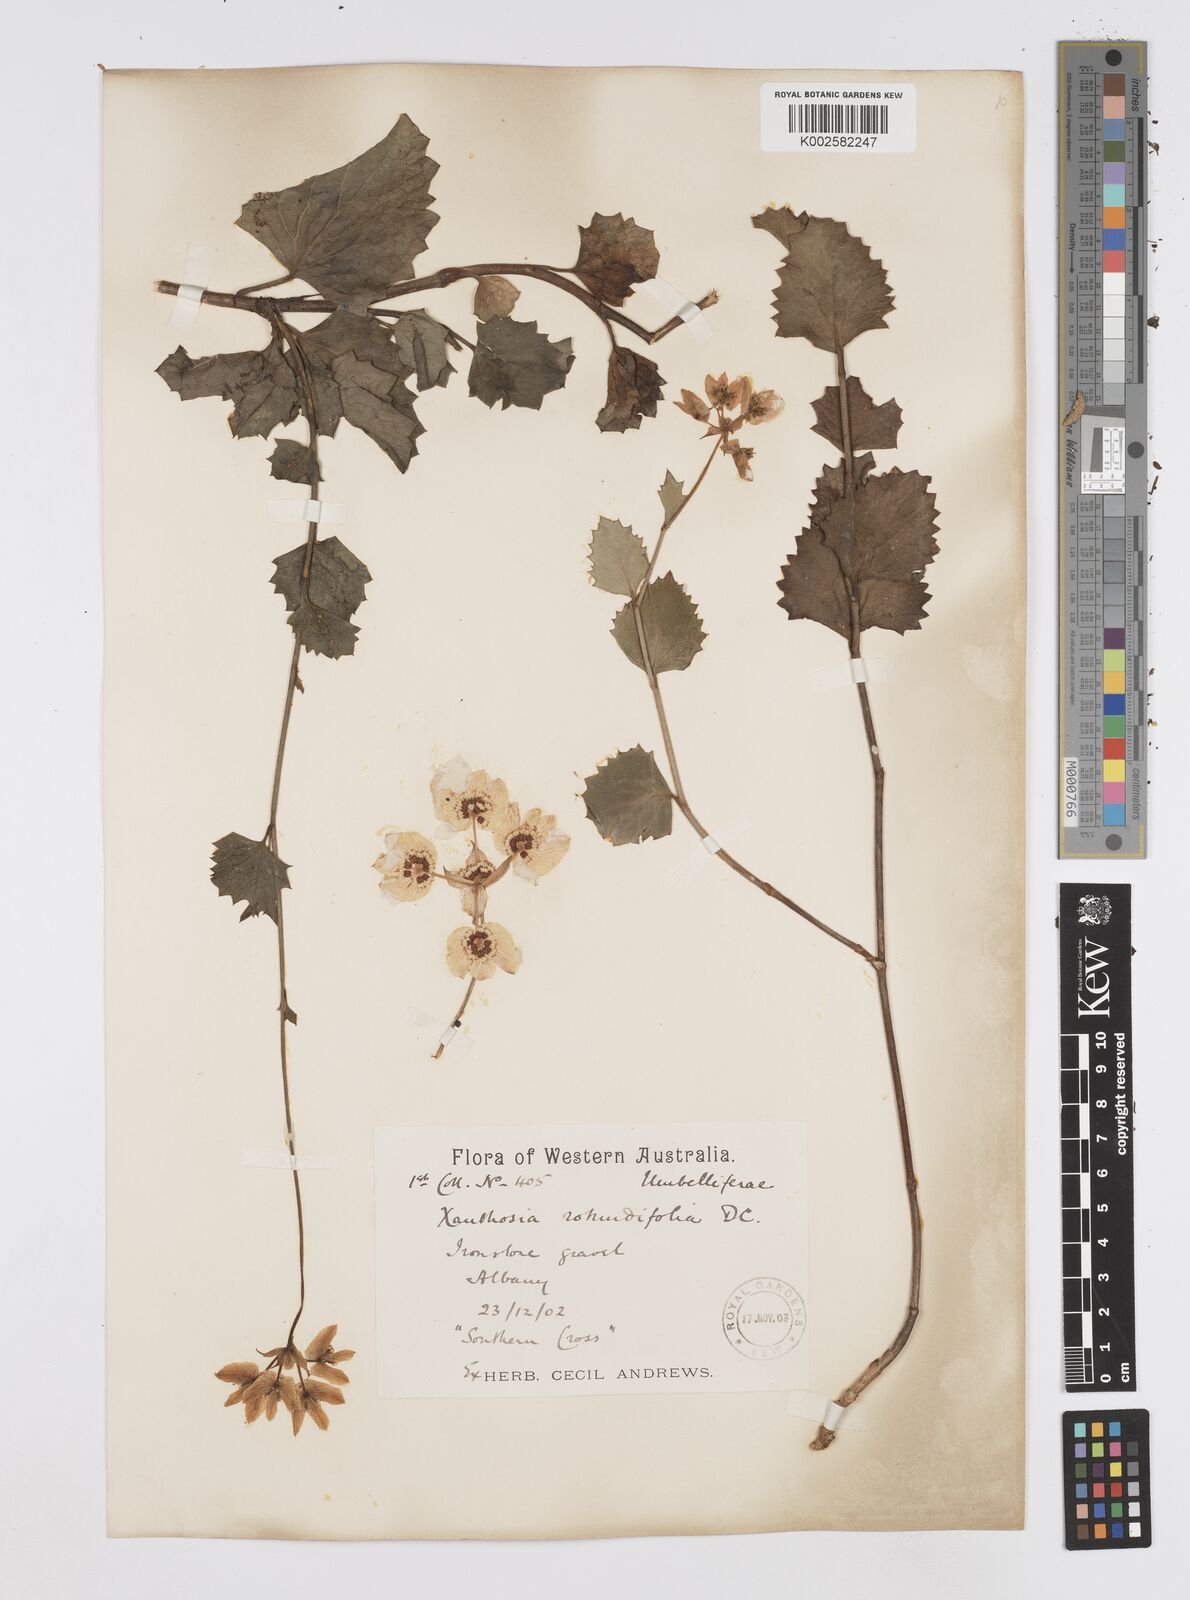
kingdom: Plantae
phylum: Tracheophyta
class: Magnoliopsida
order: Apiales
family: Apiaceae
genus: Xanthosia
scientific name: Xanthosia rotundifolia
